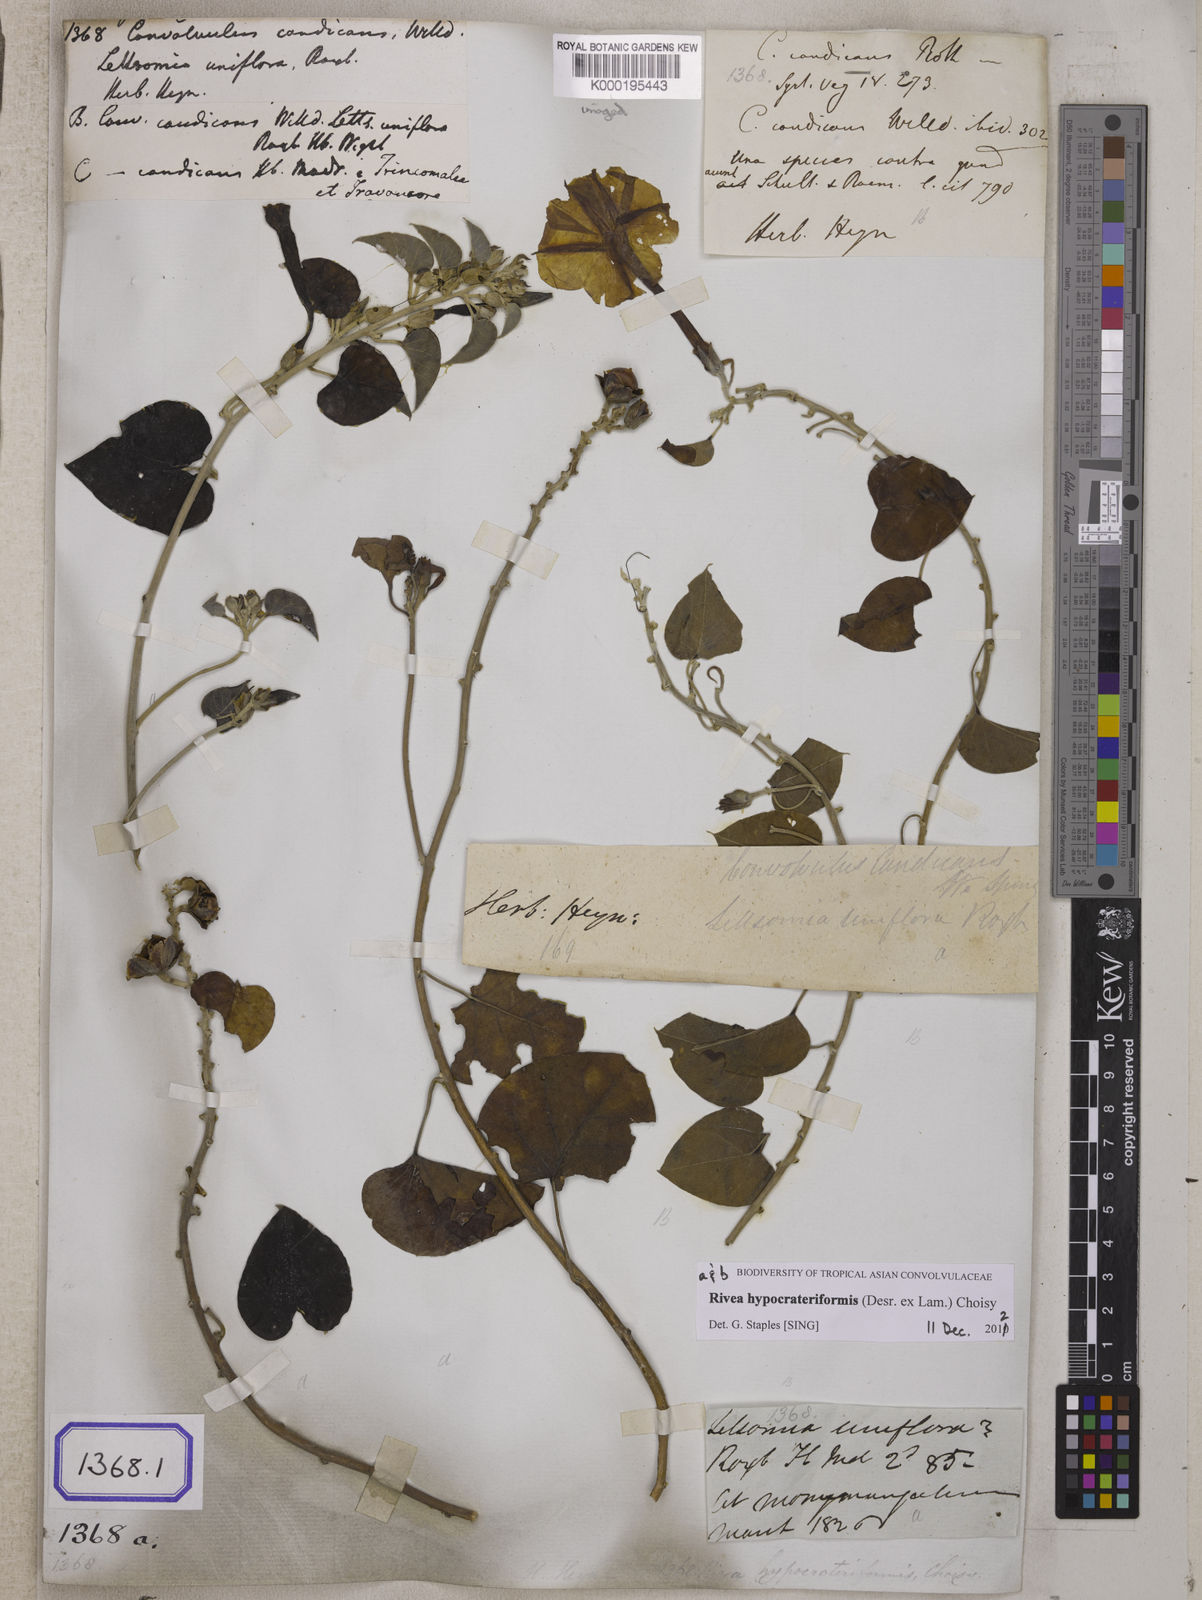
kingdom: Plantae
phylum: Tracheophyta
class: Magnoliopsida
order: Solanales
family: Convolvulaceae
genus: Convolvulus
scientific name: Convolvulus
